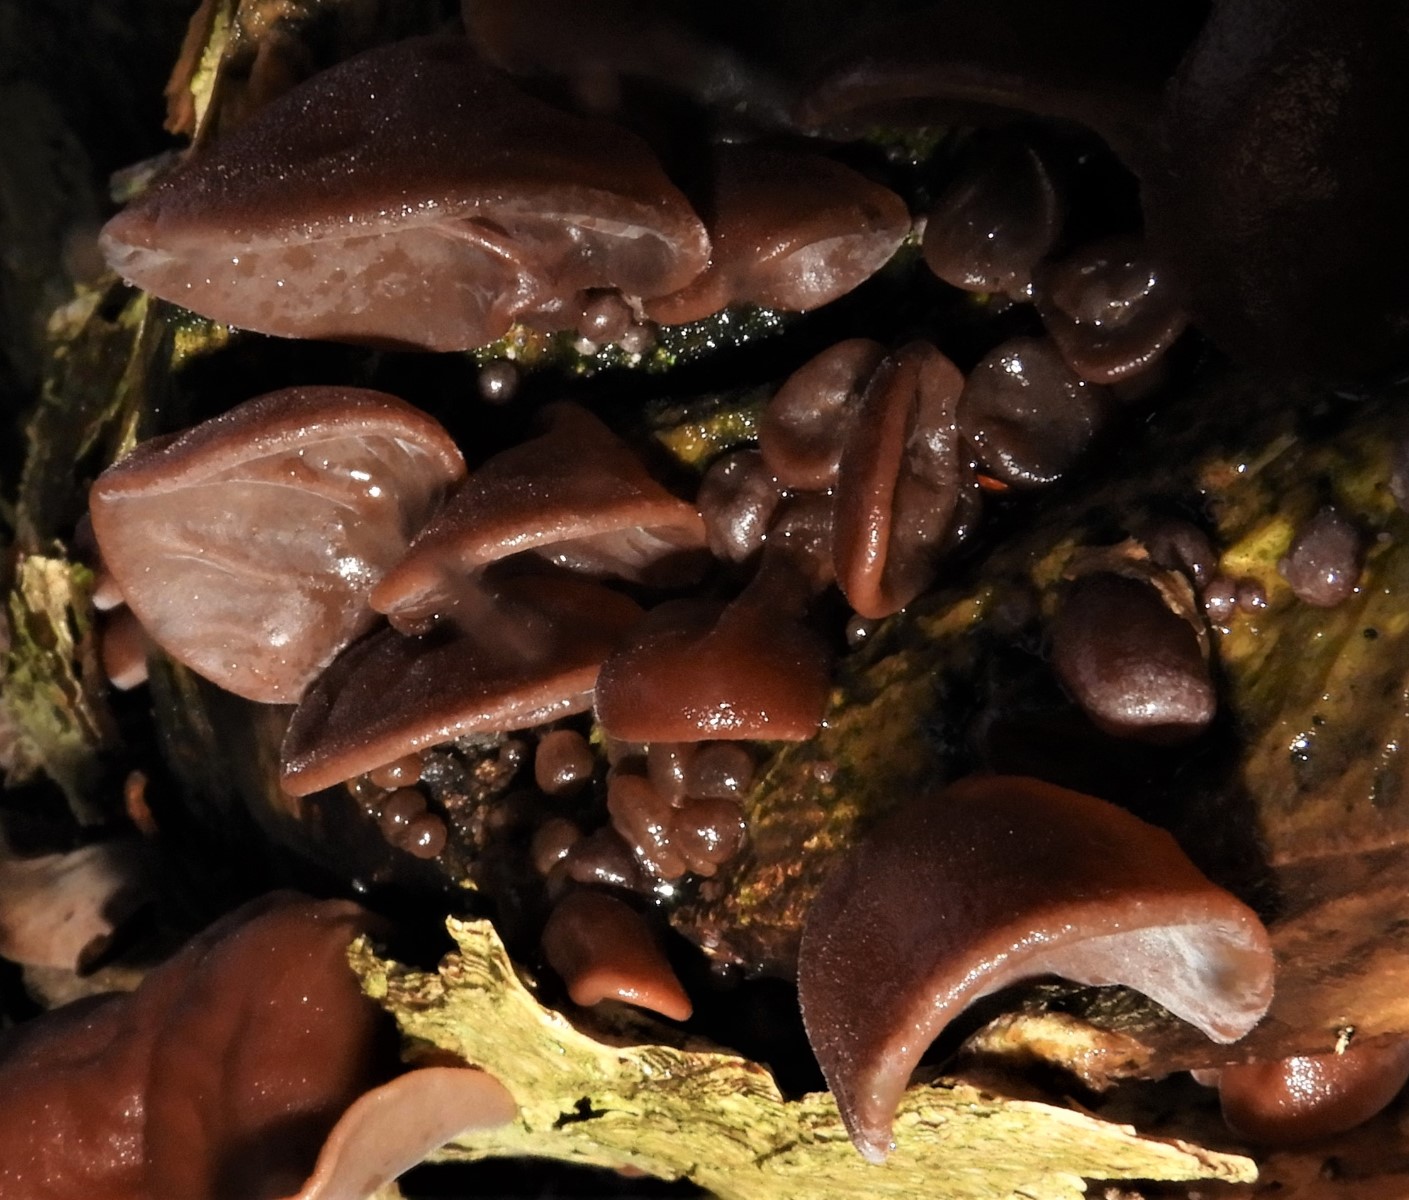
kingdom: Fungi
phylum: Basidiomycota
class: Agaricomycetes
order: Auriculariales
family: Auriculariaceae
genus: Auricularia
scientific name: Auricularia auricula-judae
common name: almindelig judasøre
